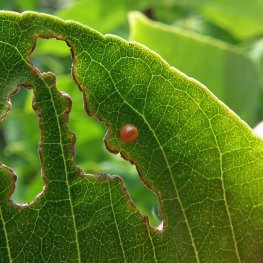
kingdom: Animalia
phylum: Arthropoda
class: Insecta
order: Lepidoptera
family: Papilionidae
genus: Papilio
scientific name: Papilio cresphontes
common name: Eastern Giant Swallowtail
